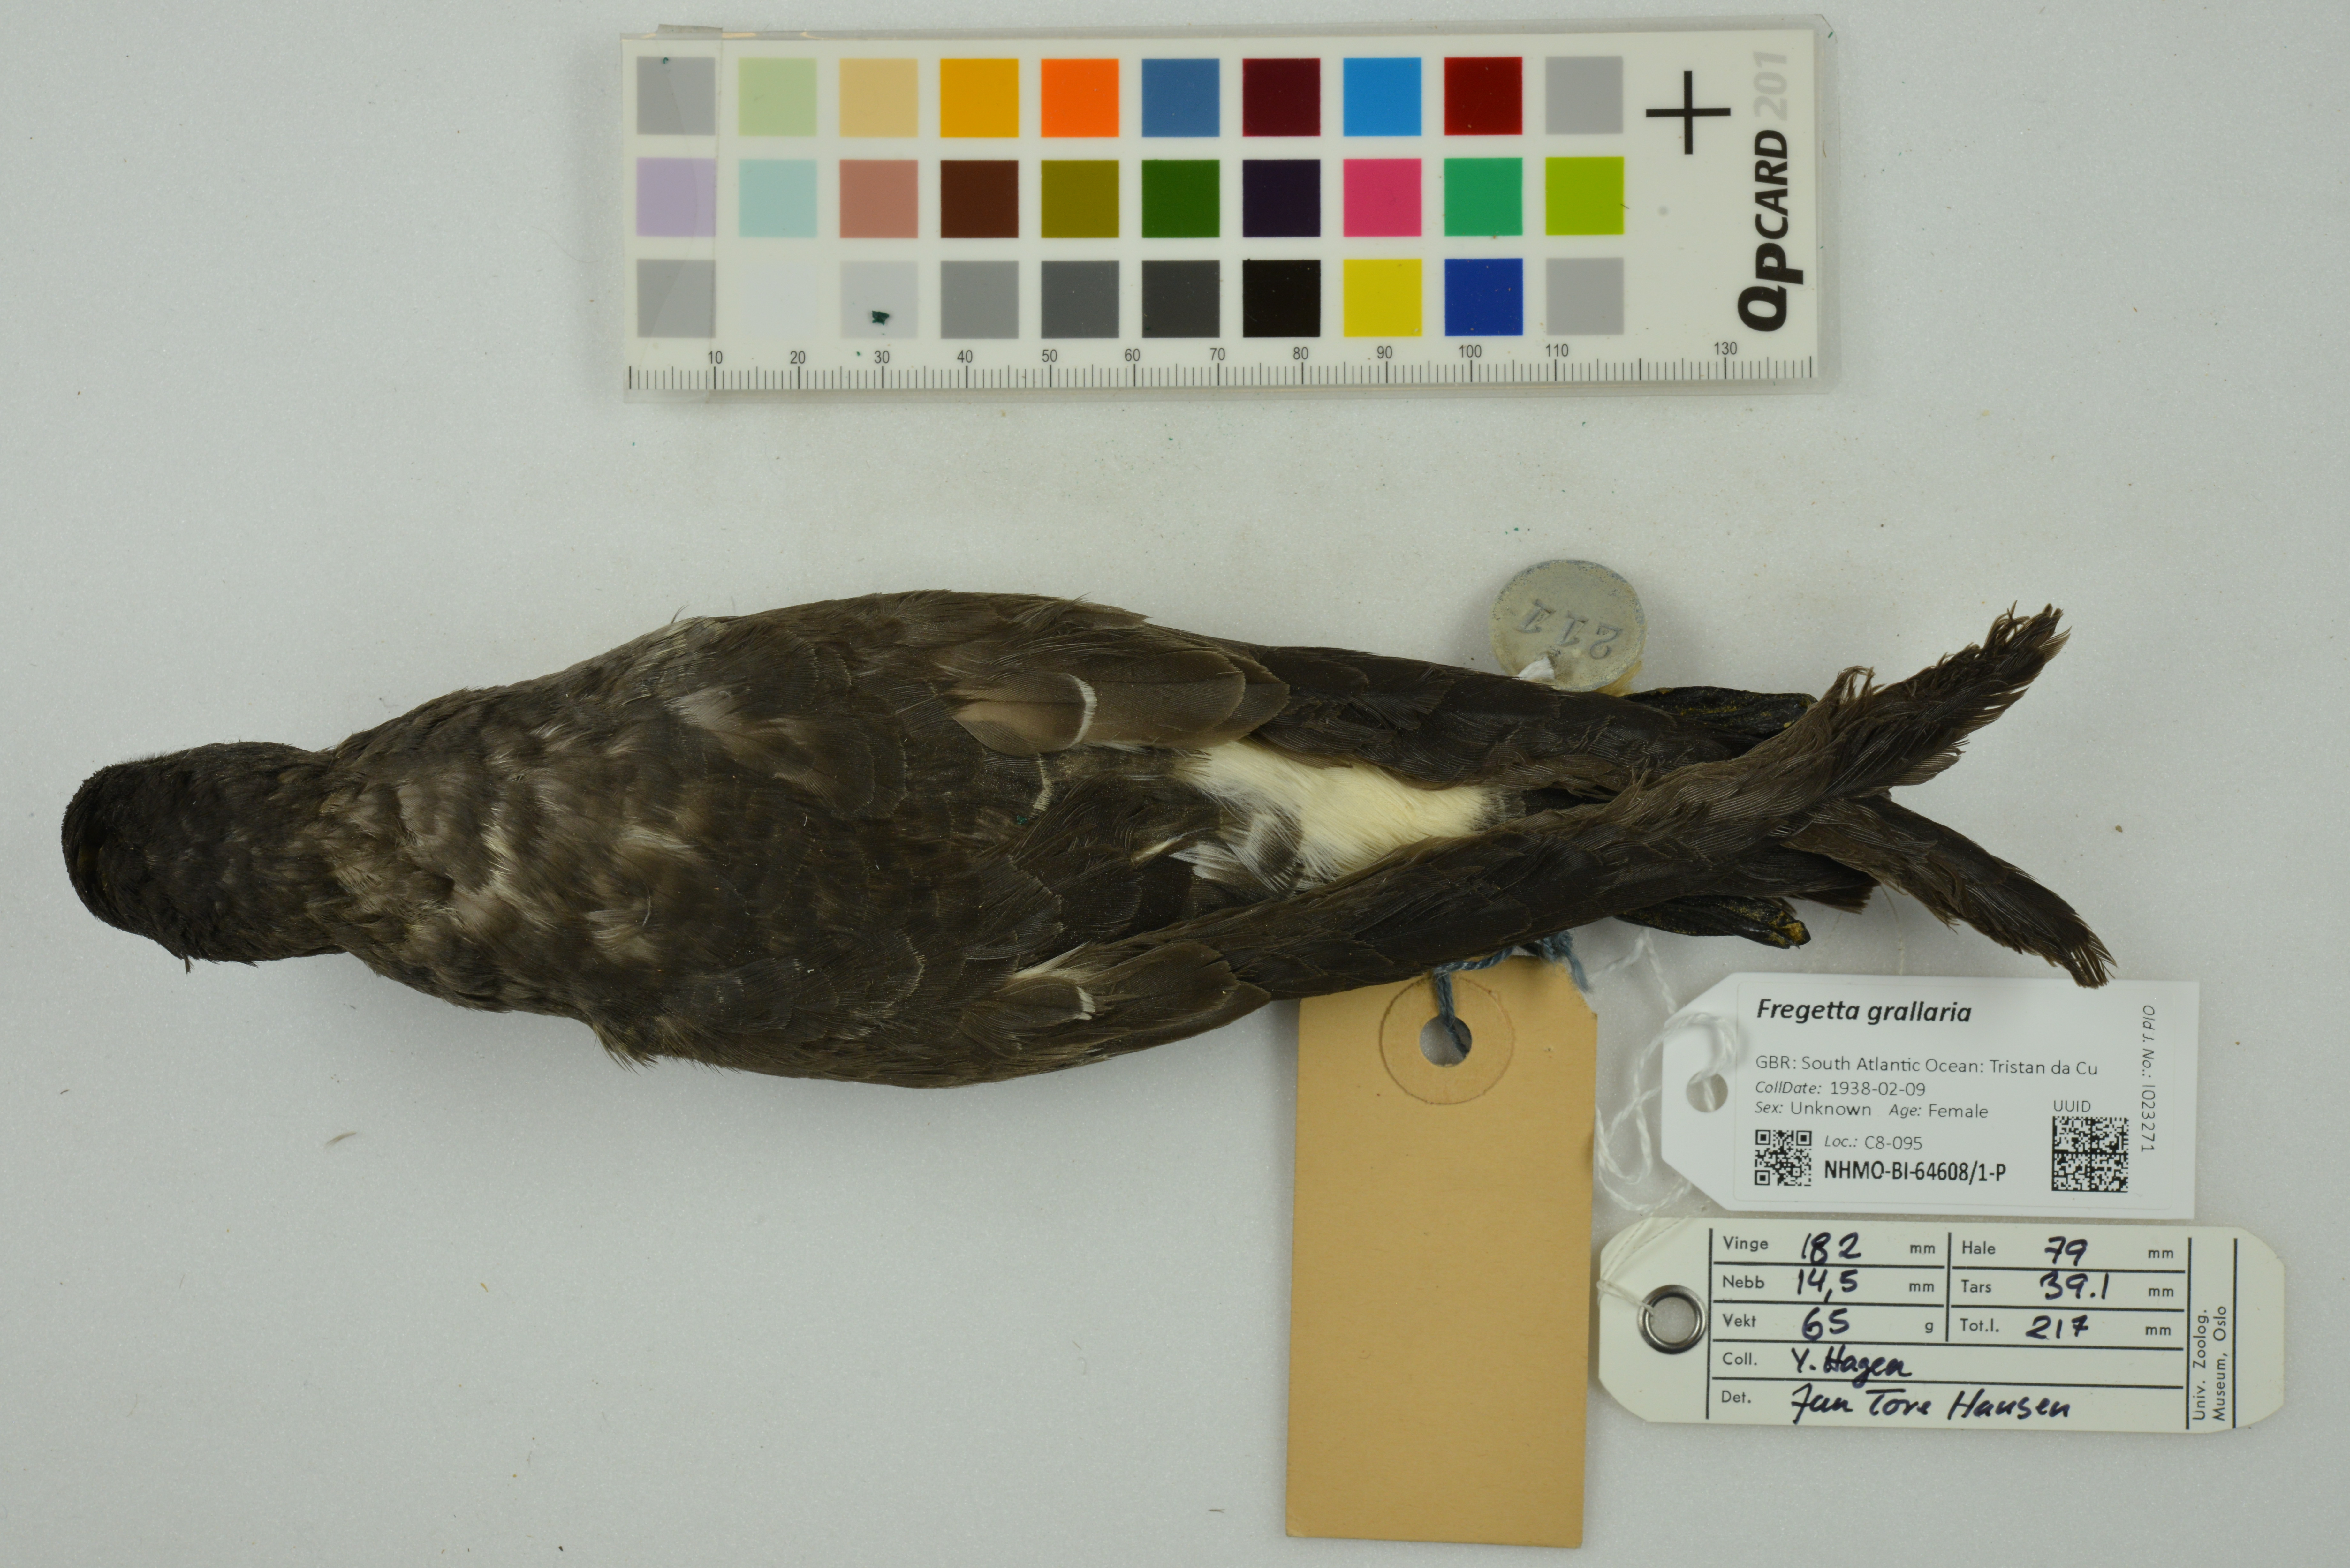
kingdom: Animalia
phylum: Chordata
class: Aves
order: Procellariiformes
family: Hydrobatidae
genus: Fregetta
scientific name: Fregetta grallaria
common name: White-bellied storm-petrel
